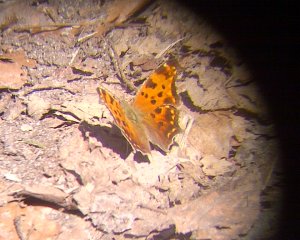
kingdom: Animalia
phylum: Arthropoda
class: Insecta
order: Lepidoptera
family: Nymphalidae
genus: Polygonia
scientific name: Polygonia comma
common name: Eastern Comma
